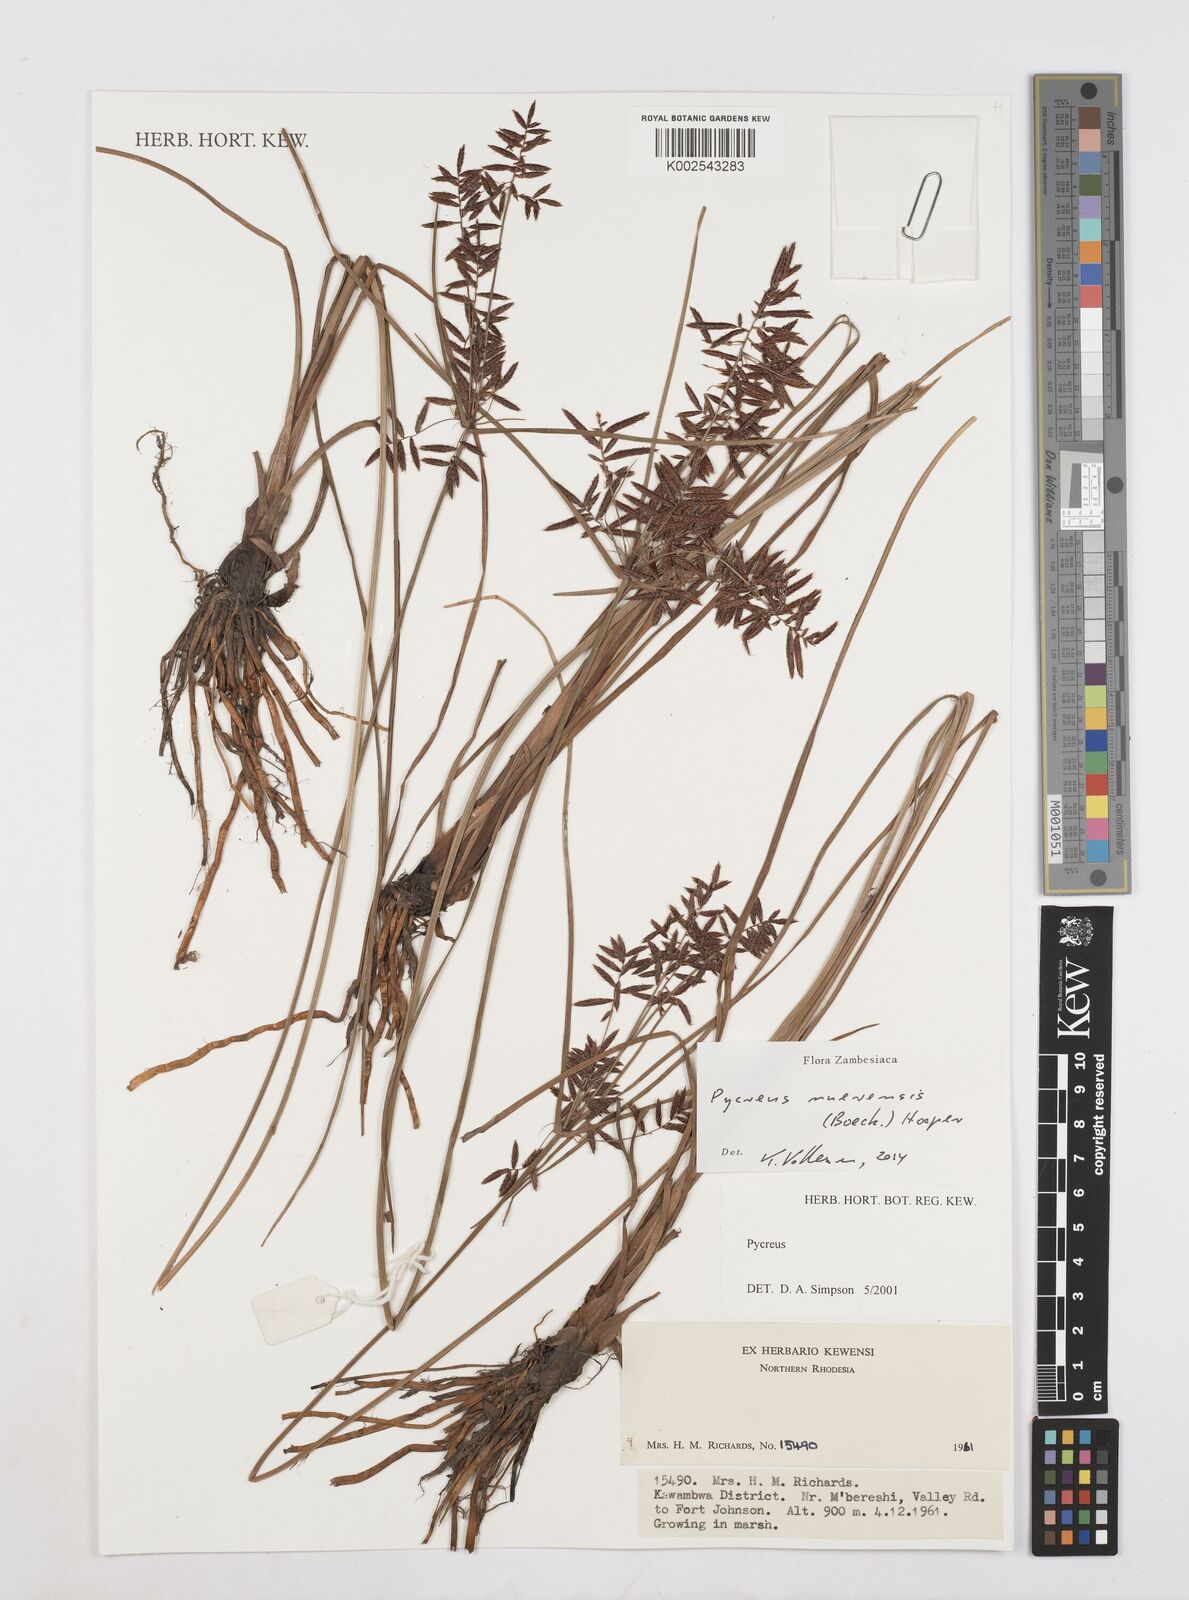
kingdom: Plantae
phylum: Tracheophyta
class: Liliopsida
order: Poales
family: Cyperaceae
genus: Cyperus
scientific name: Cyperus nuerensis
